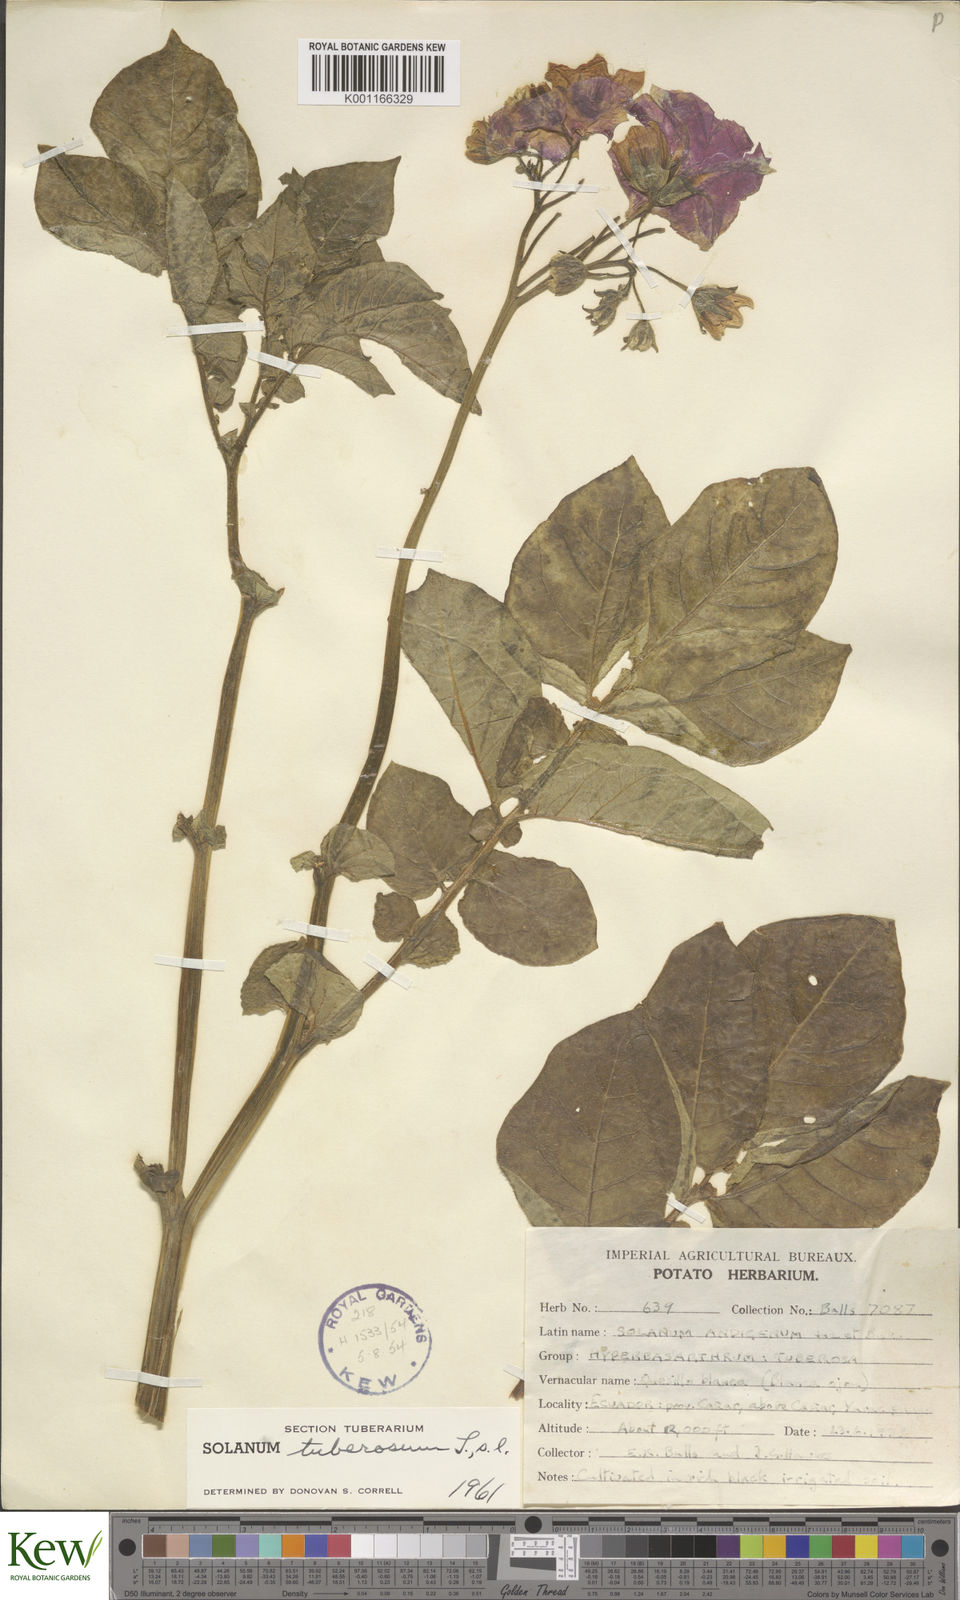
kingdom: Plantae
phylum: Tracheophyta
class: Magnoliopsida
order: Solanales
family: Solanaceae
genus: Solanum
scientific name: Solanum tuberosum
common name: Potato
